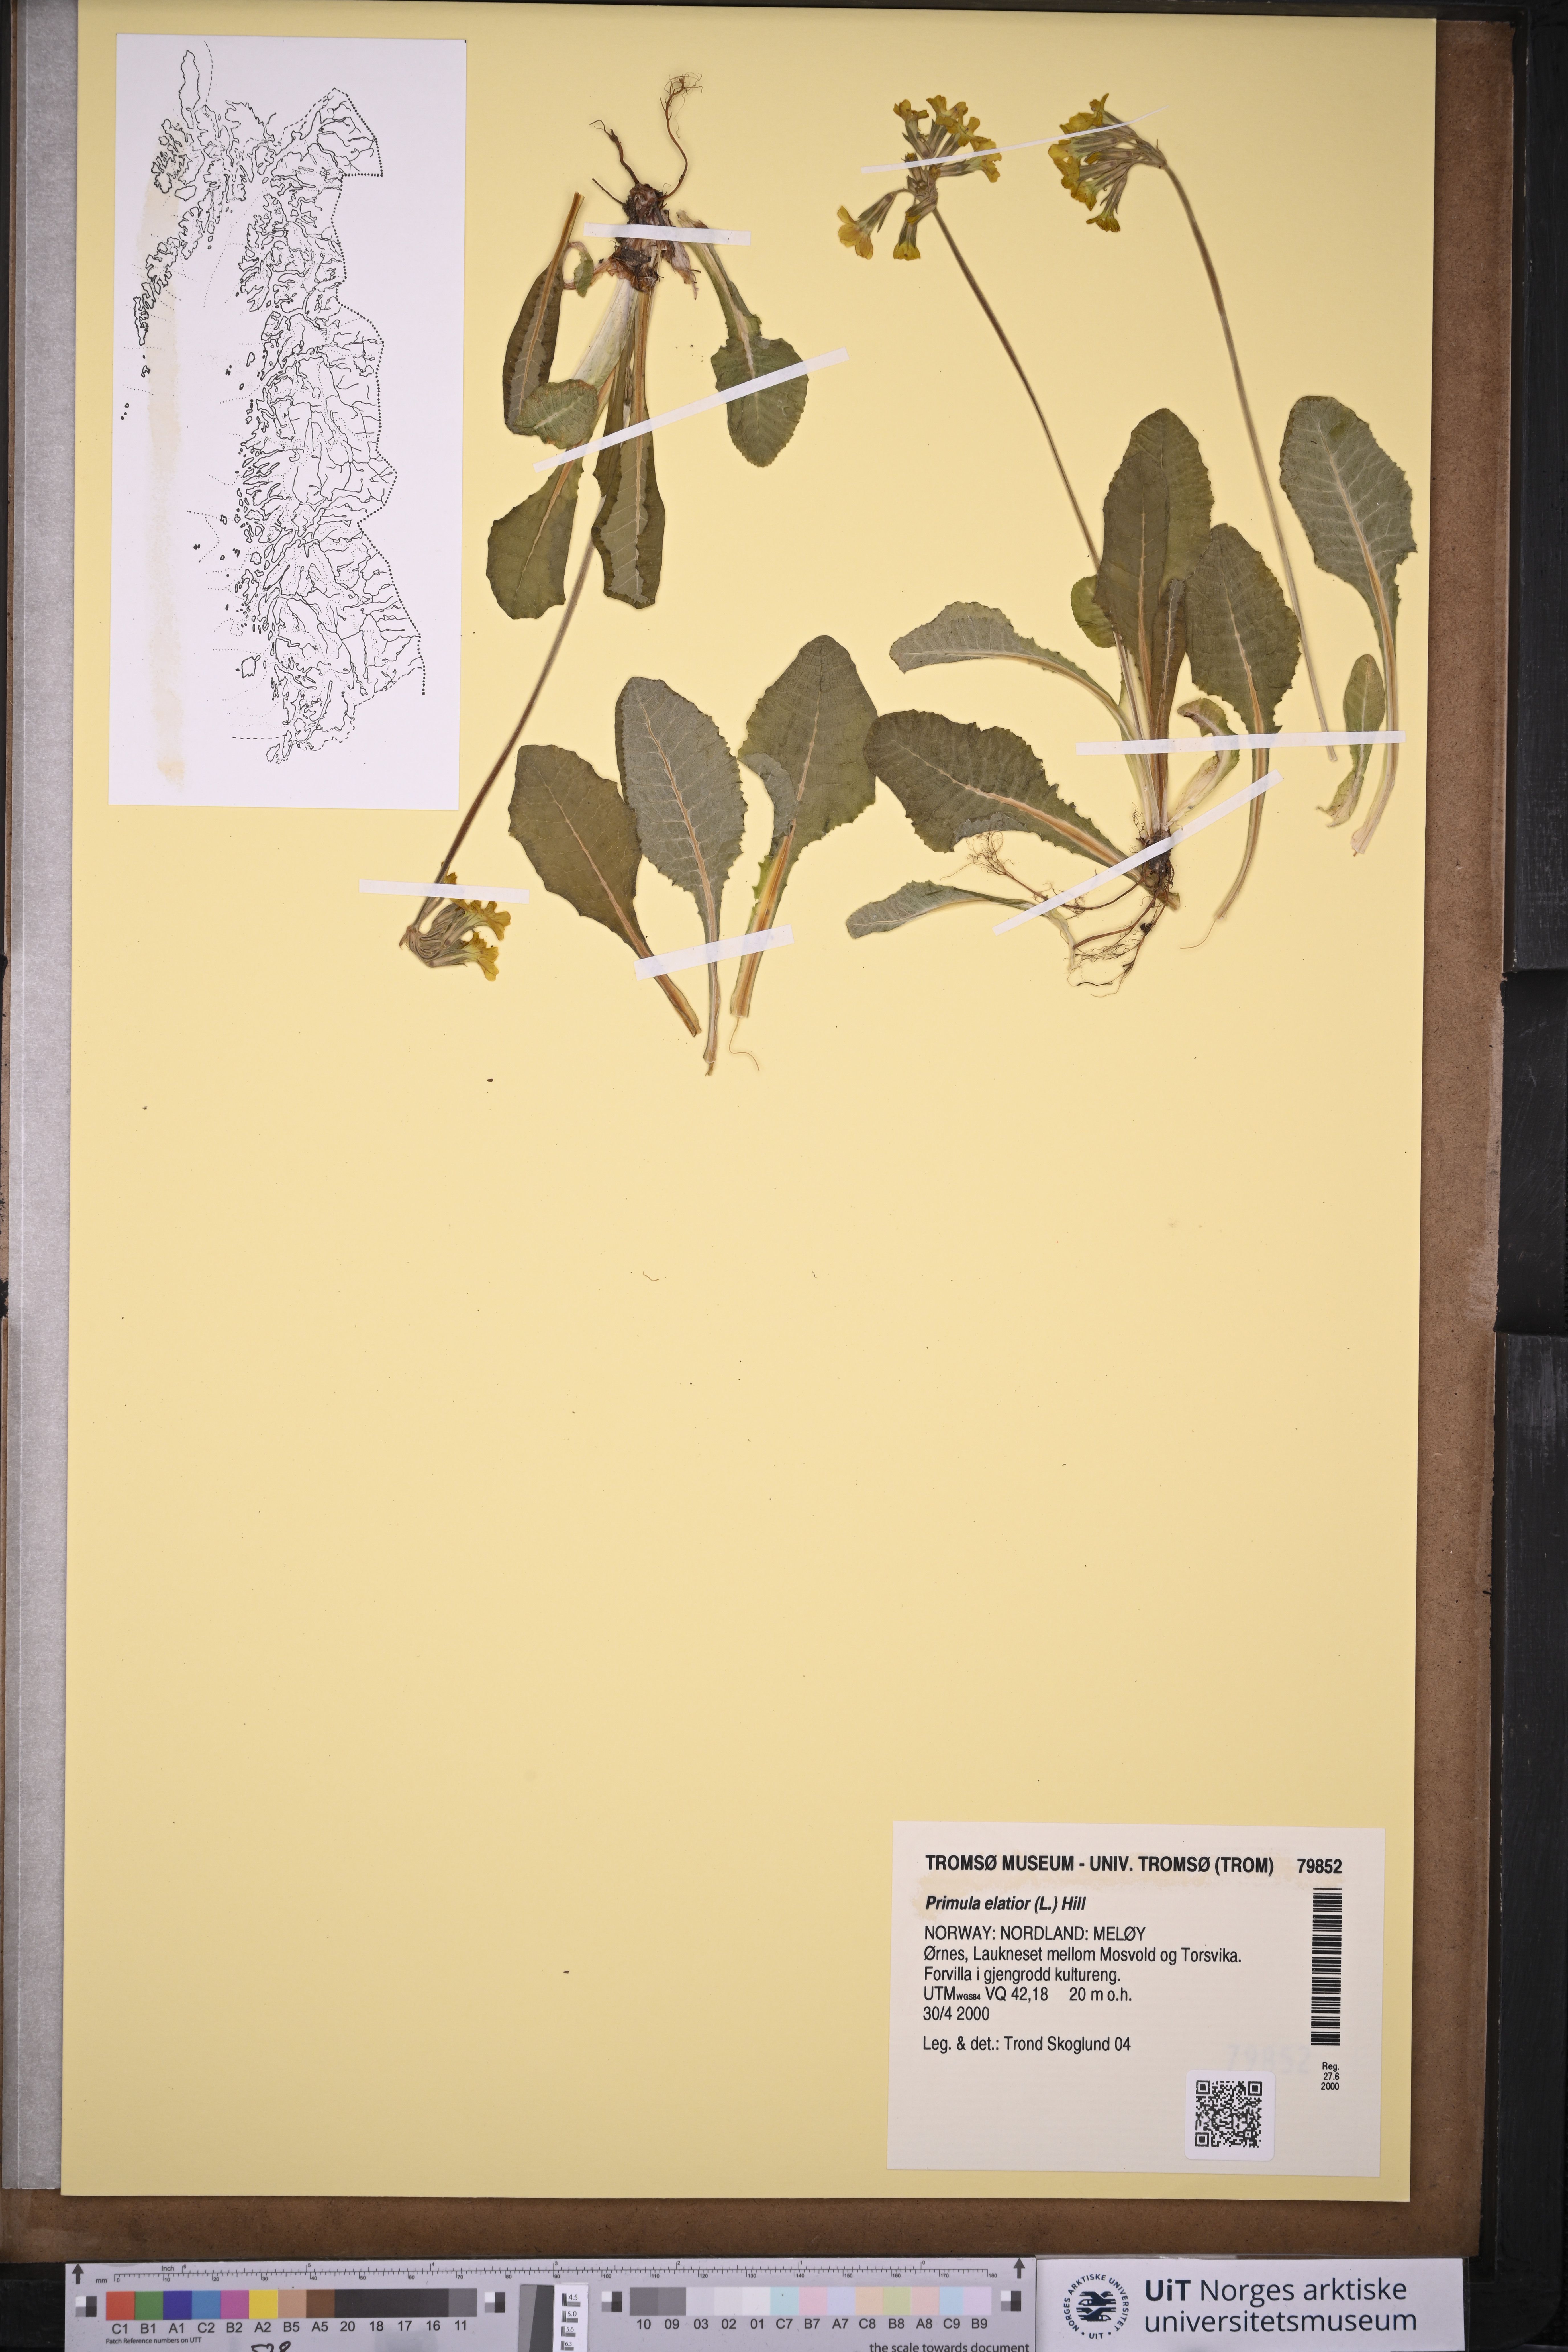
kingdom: Plantae
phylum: Tracheophyta
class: Magnoliopsida
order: Ericales
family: Primulaceae
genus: Primula
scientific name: Primula elatior
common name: Oxlip
